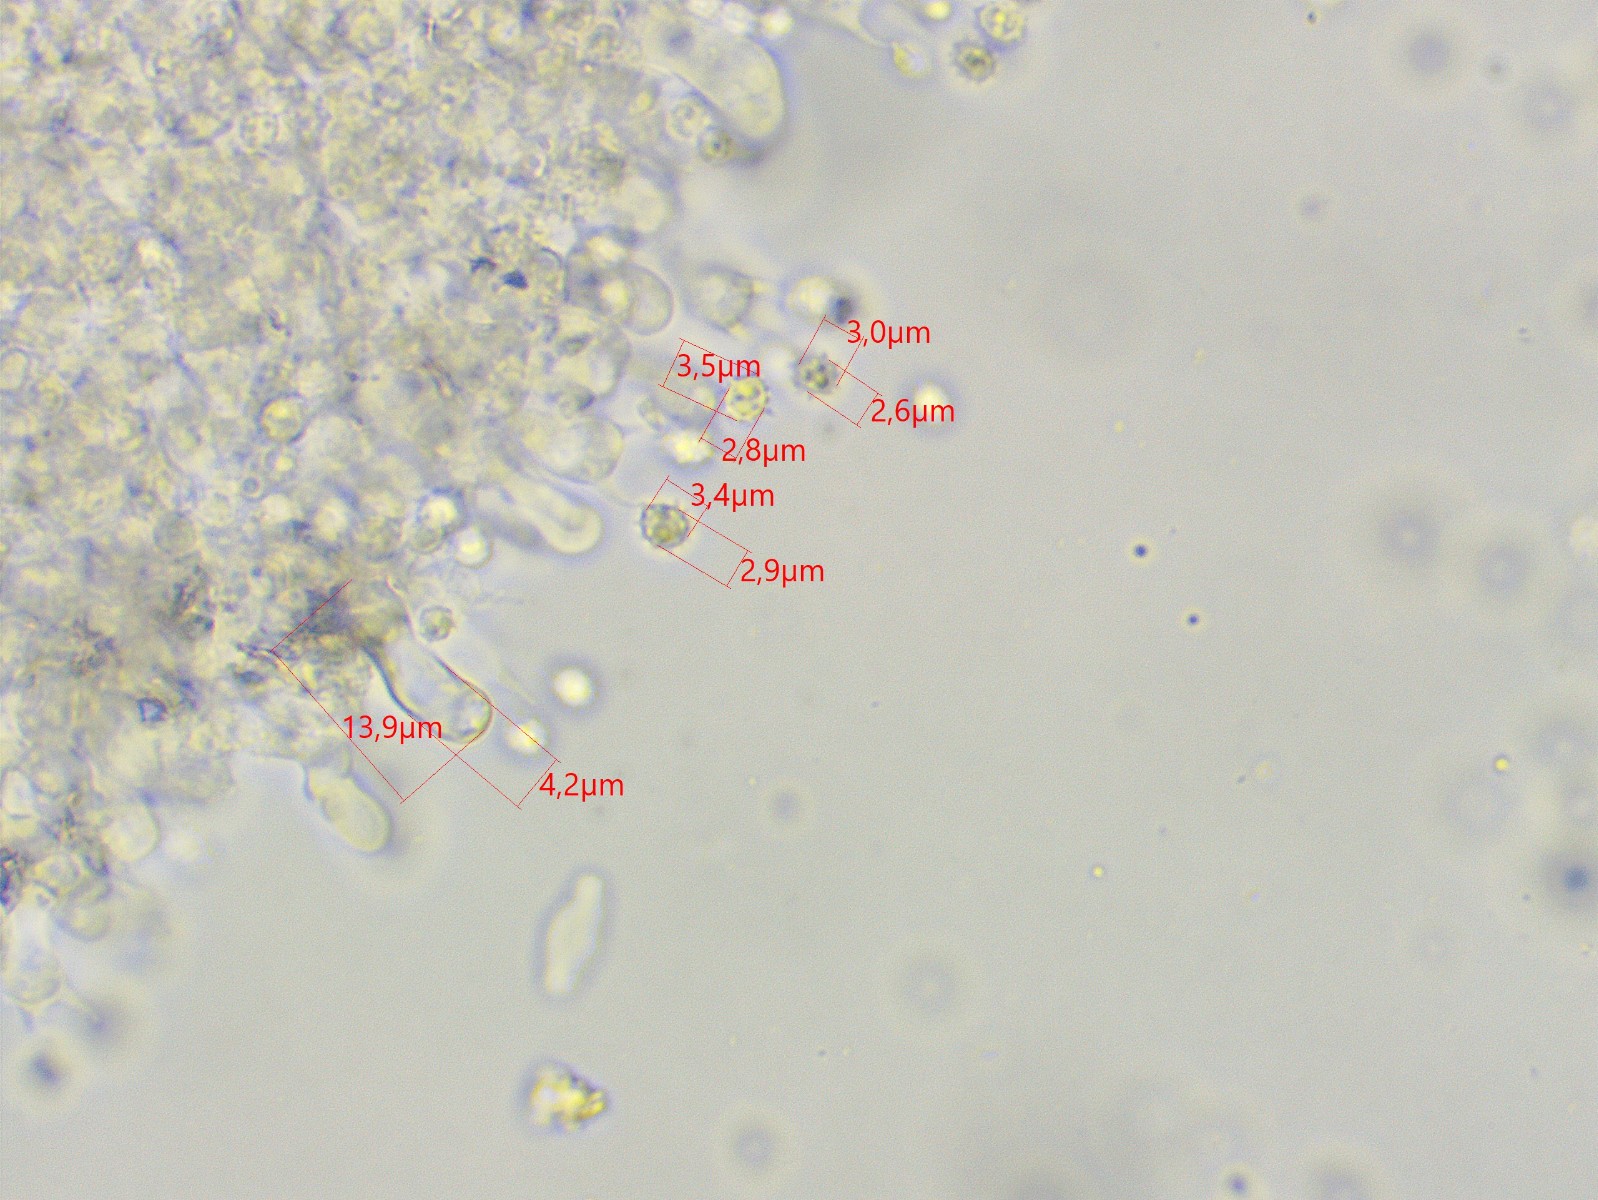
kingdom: Fungi
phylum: Basidiomycota
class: Agaricomycetes
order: Trechisporales
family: Sistotremataceae
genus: Trechispora
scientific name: Trechispora
